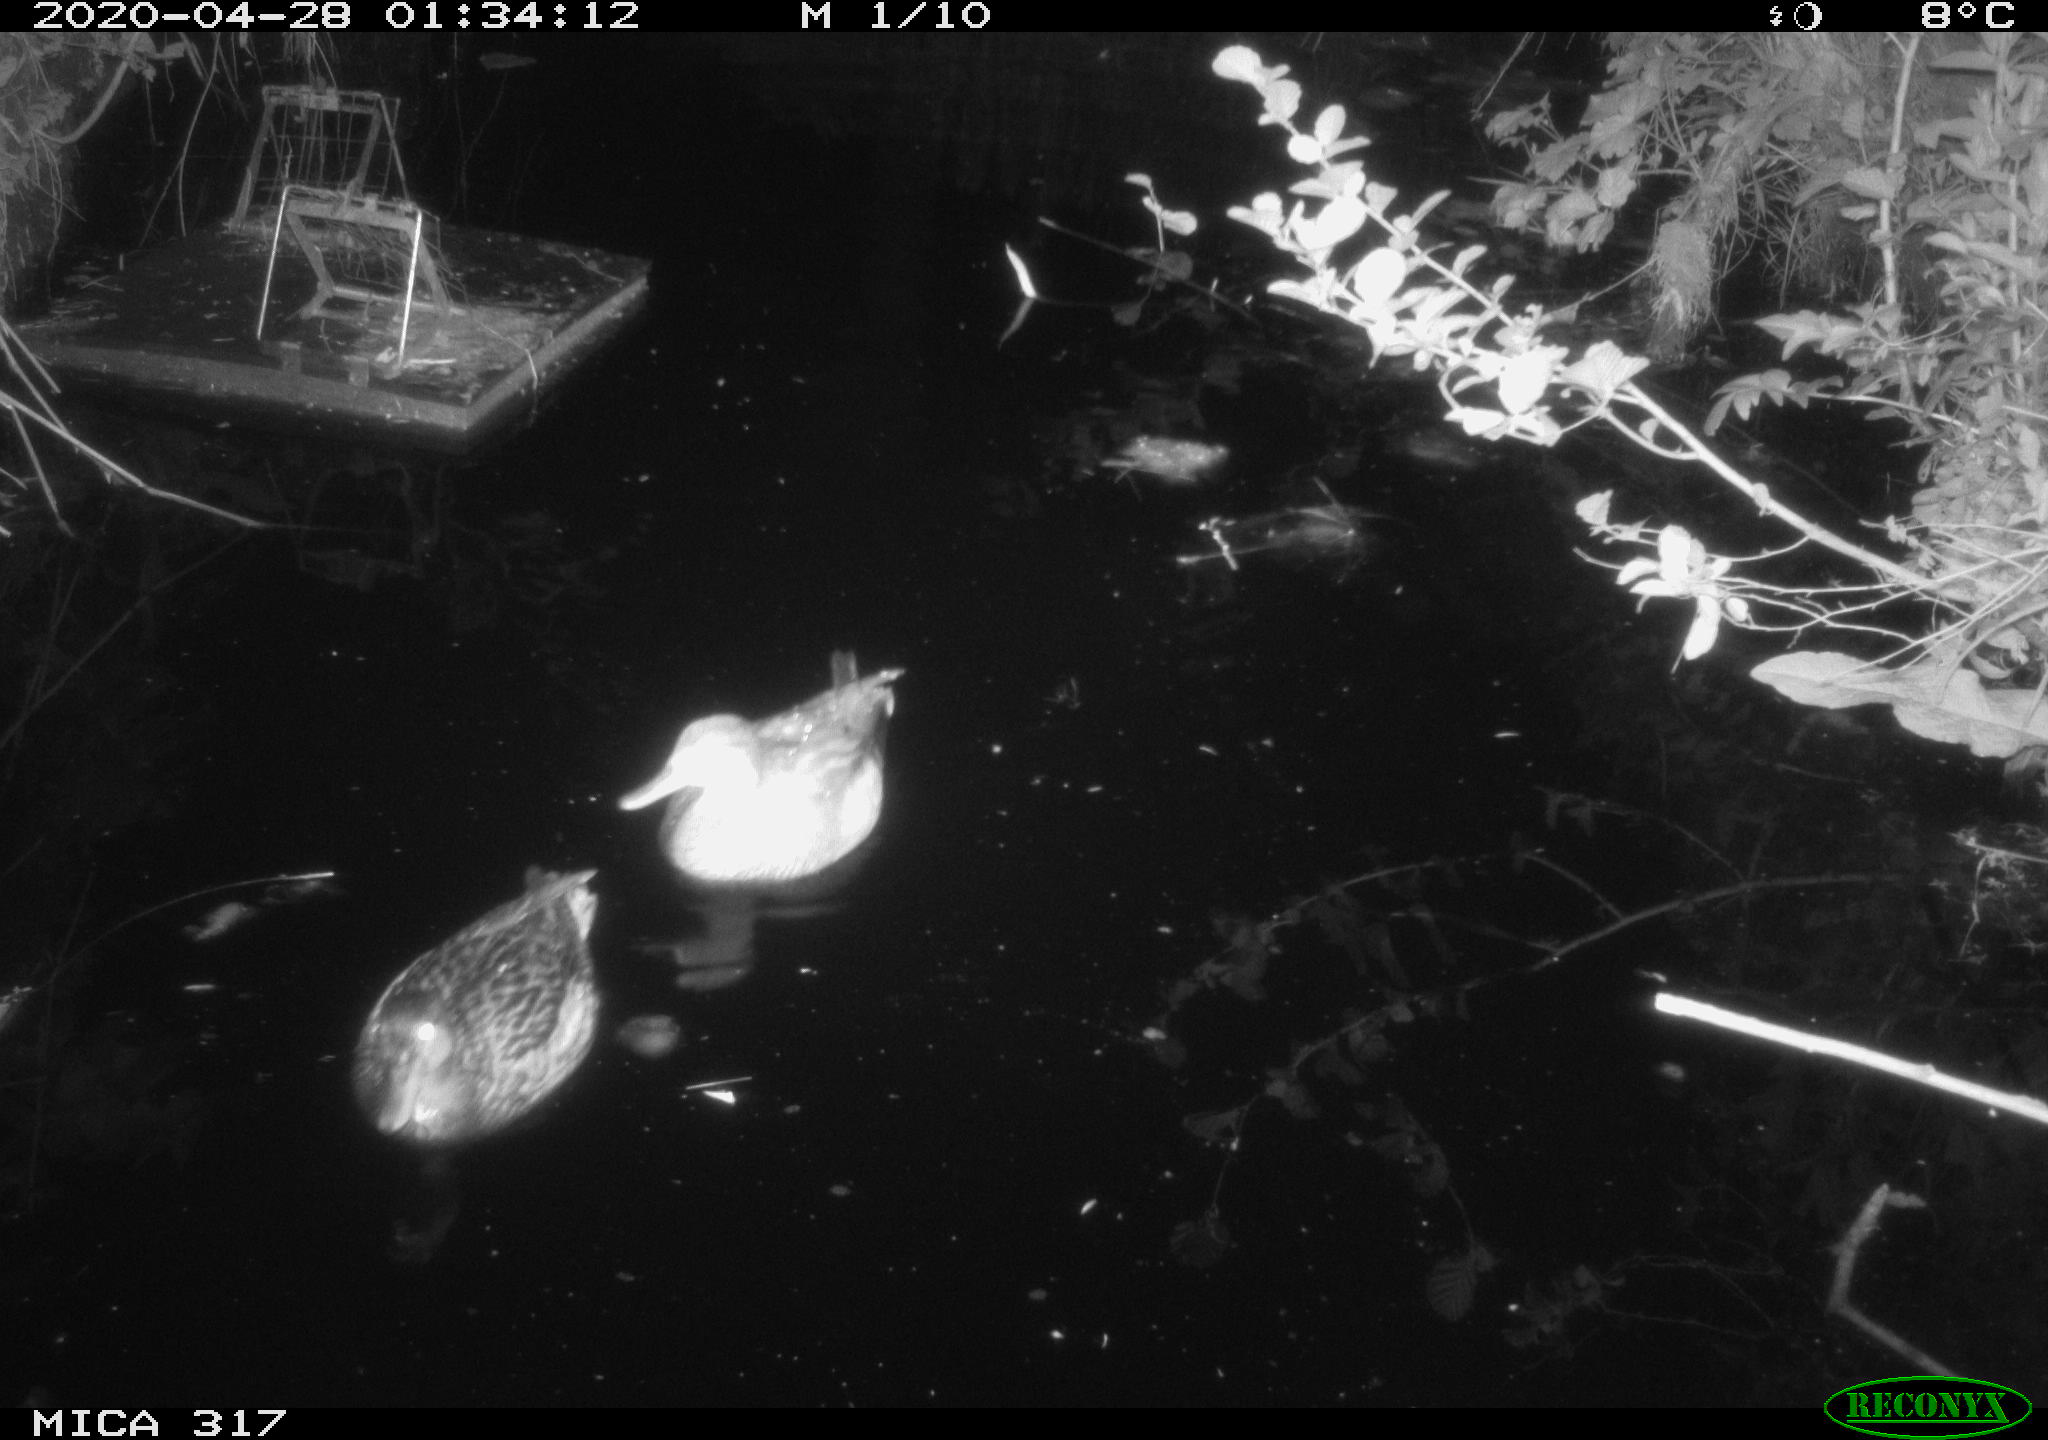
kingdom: Animalia
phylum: Chordata
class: Aves
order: Anseriformes
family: Anatidae
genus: Anas
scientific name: Anas platyrhynchos
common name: Mallard
